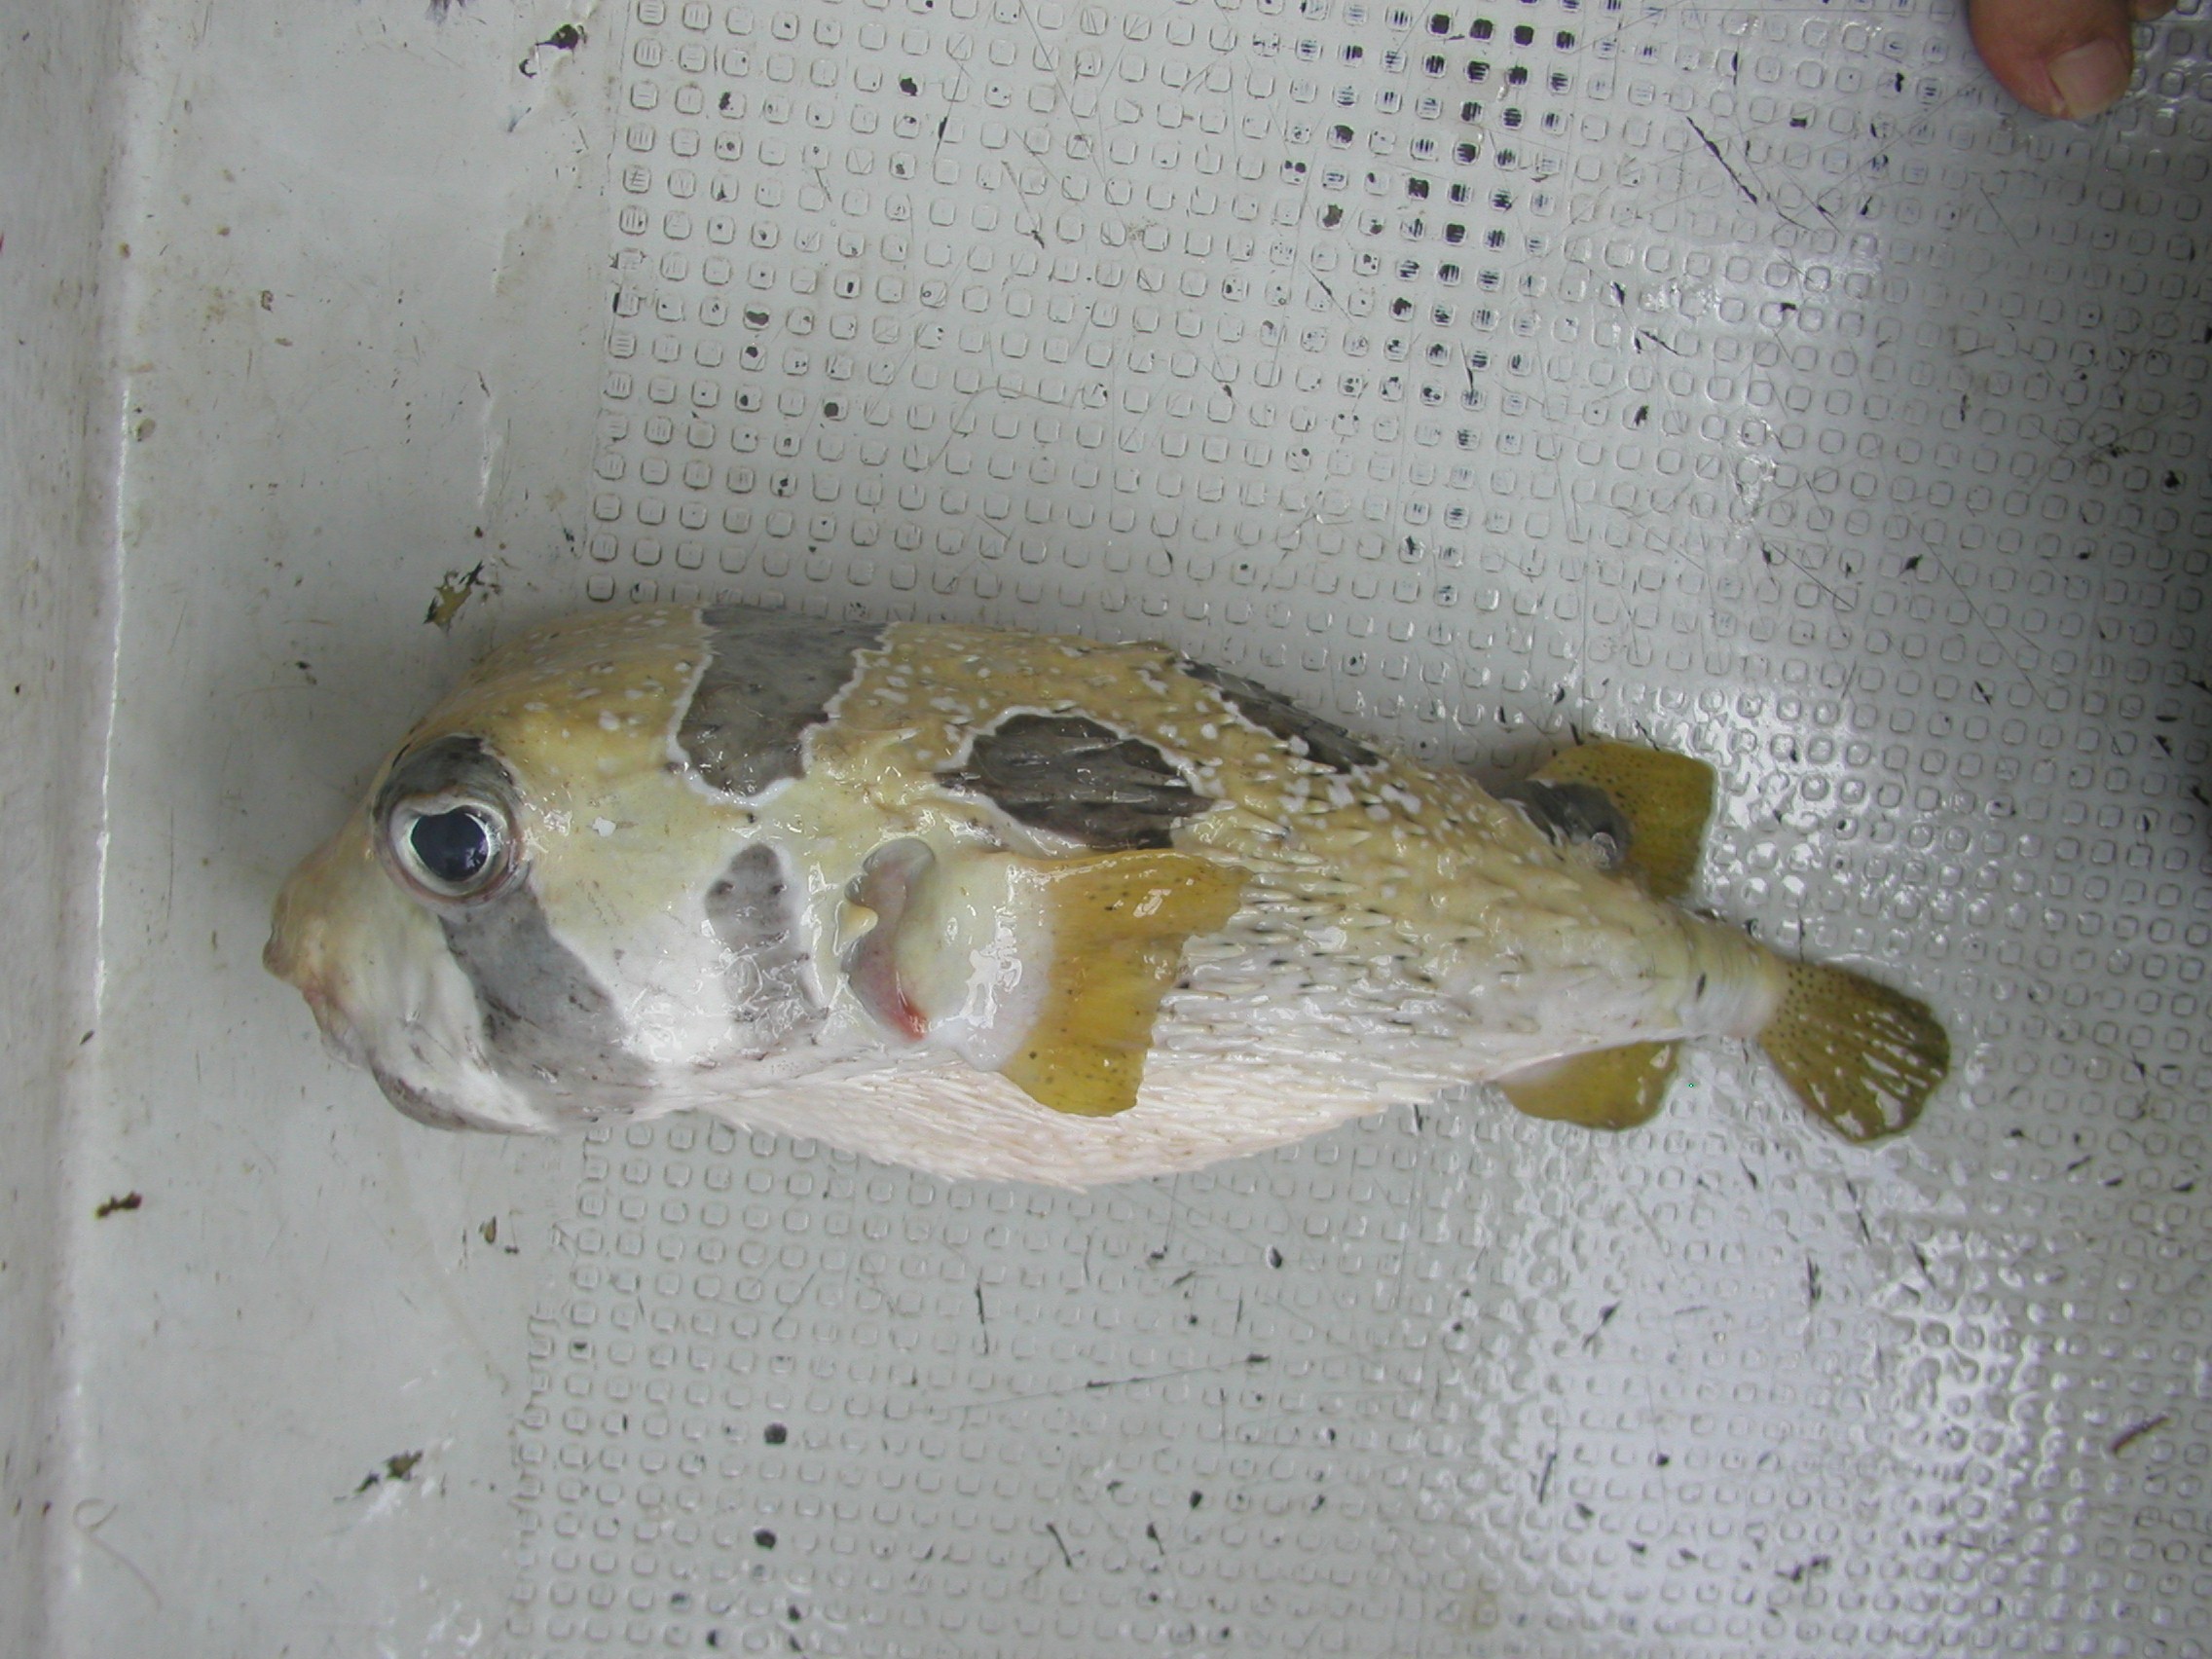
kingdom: Animalia
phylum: Chordata
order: Tetraodontiformes
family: Diodontidae
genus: Diodon
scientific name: Diodon liturosus
